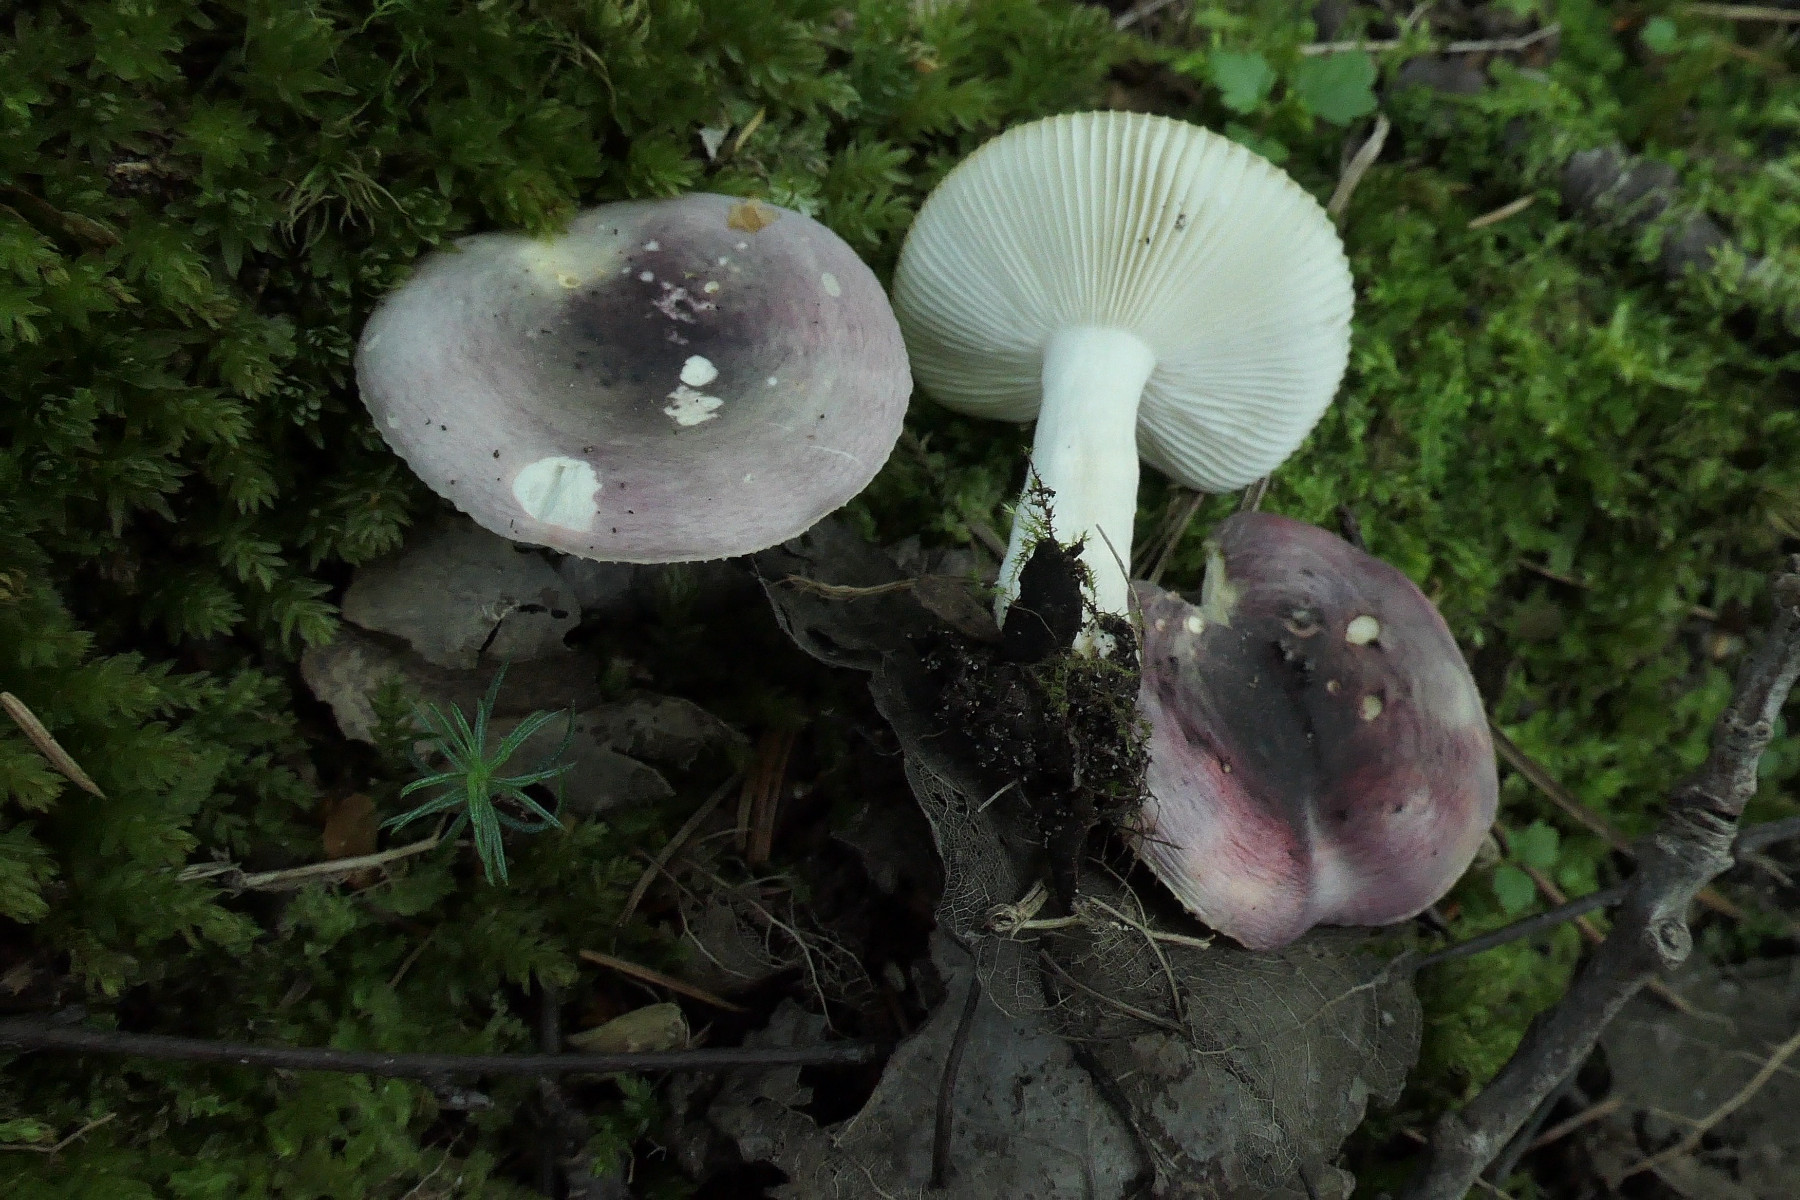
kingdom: Fungi
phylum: Basidiomycota
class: Agaricomycetes
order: Russulales
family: Russulaceae
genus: Russula
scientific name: Russula pelargonia
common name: pelargonie-skørhat
